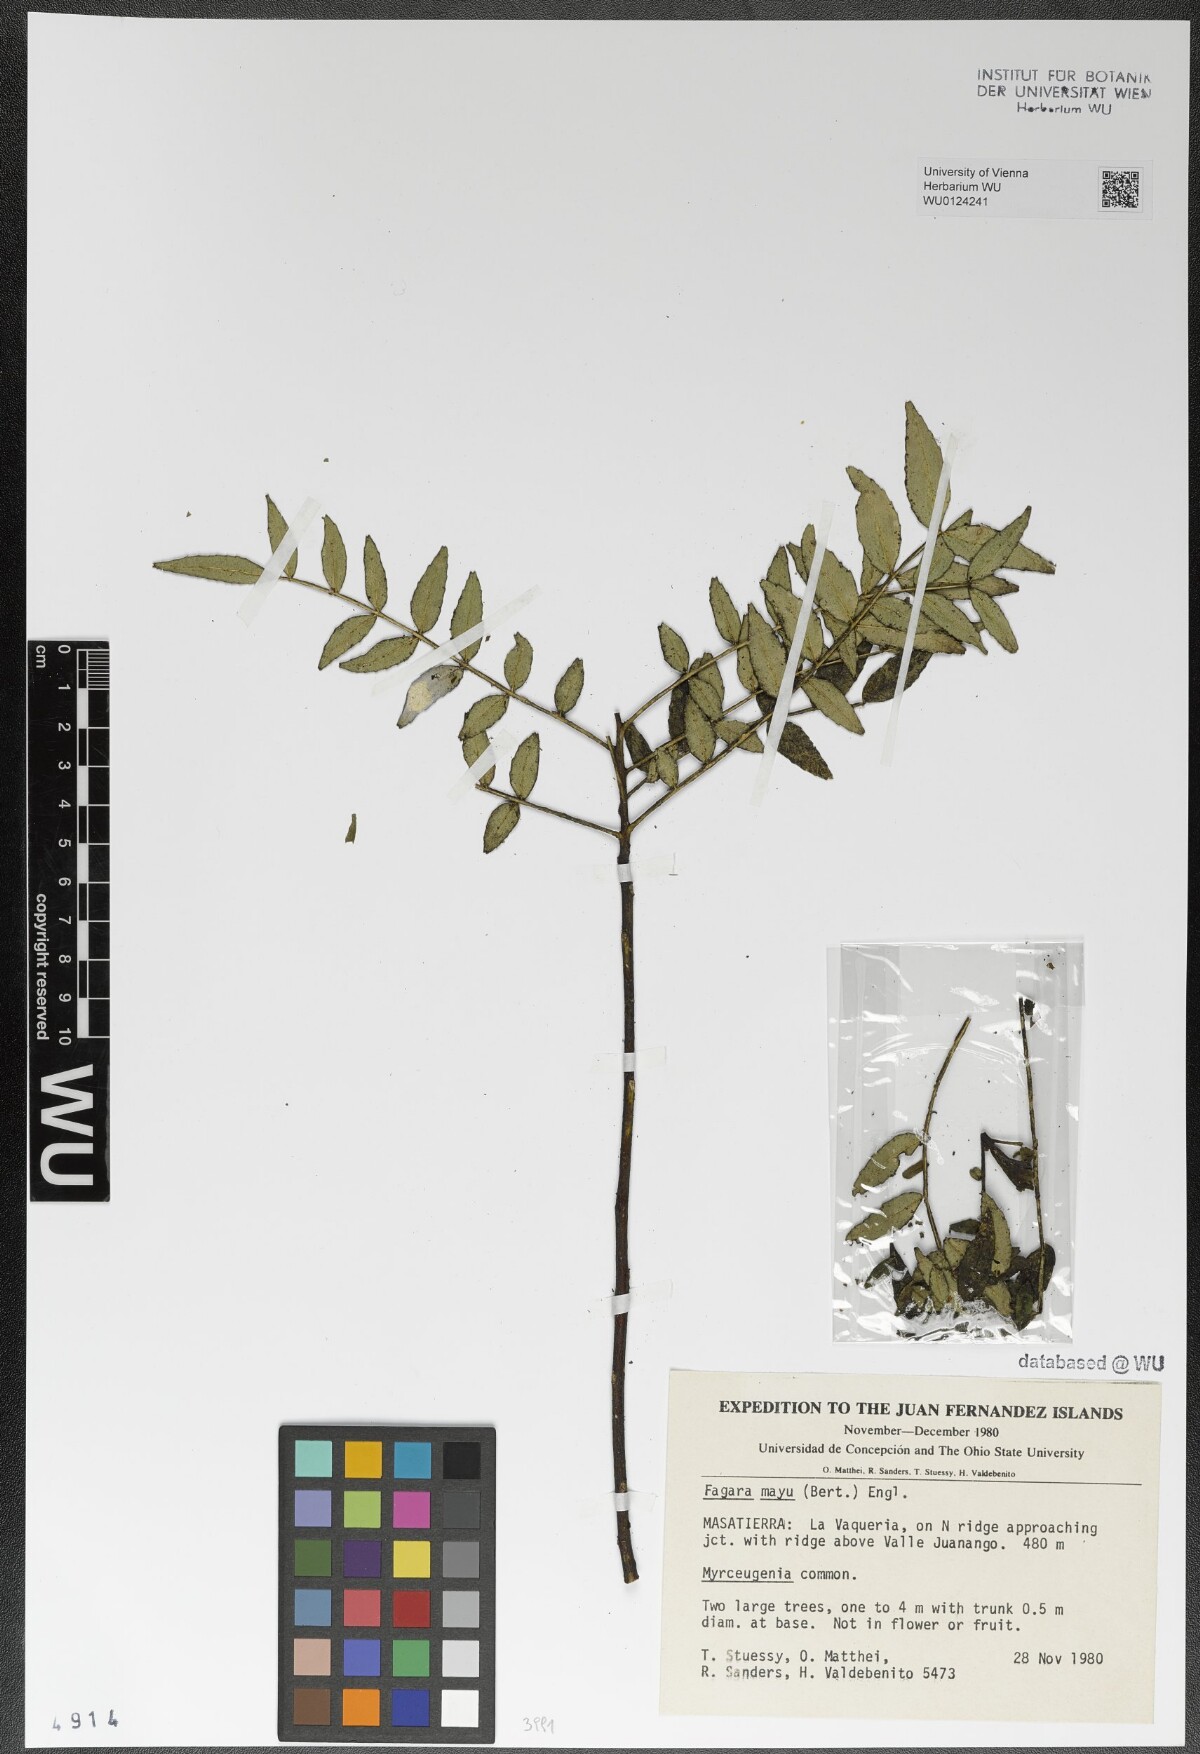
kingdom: Plantae
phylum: Tracheophyta
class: Magnoliopsida
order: Sapindales
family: Rutaceae
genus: Zanthoxylum
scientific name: Zanthoxylum mayu
